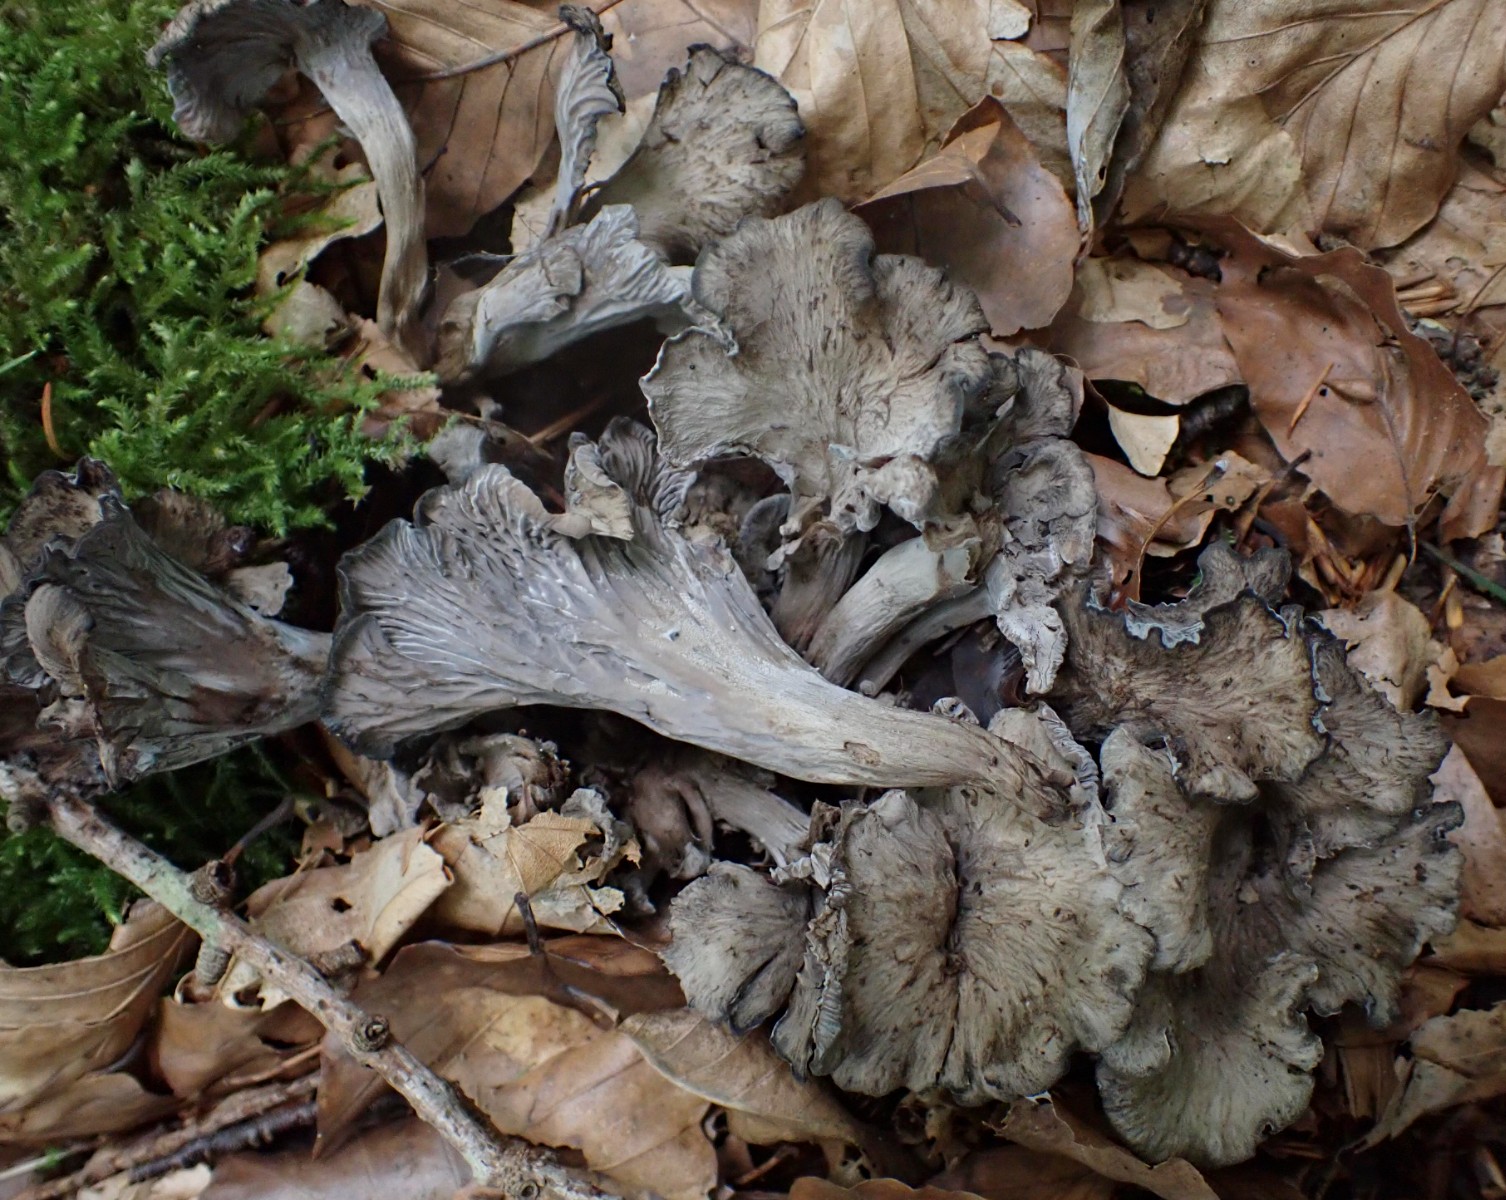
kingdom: Fungi
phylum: Basidiomycota
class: Agaricomycetes
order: Cantharellales
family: Hydnaceae
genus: Cantharellus
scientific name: Cantharellus cinereus
